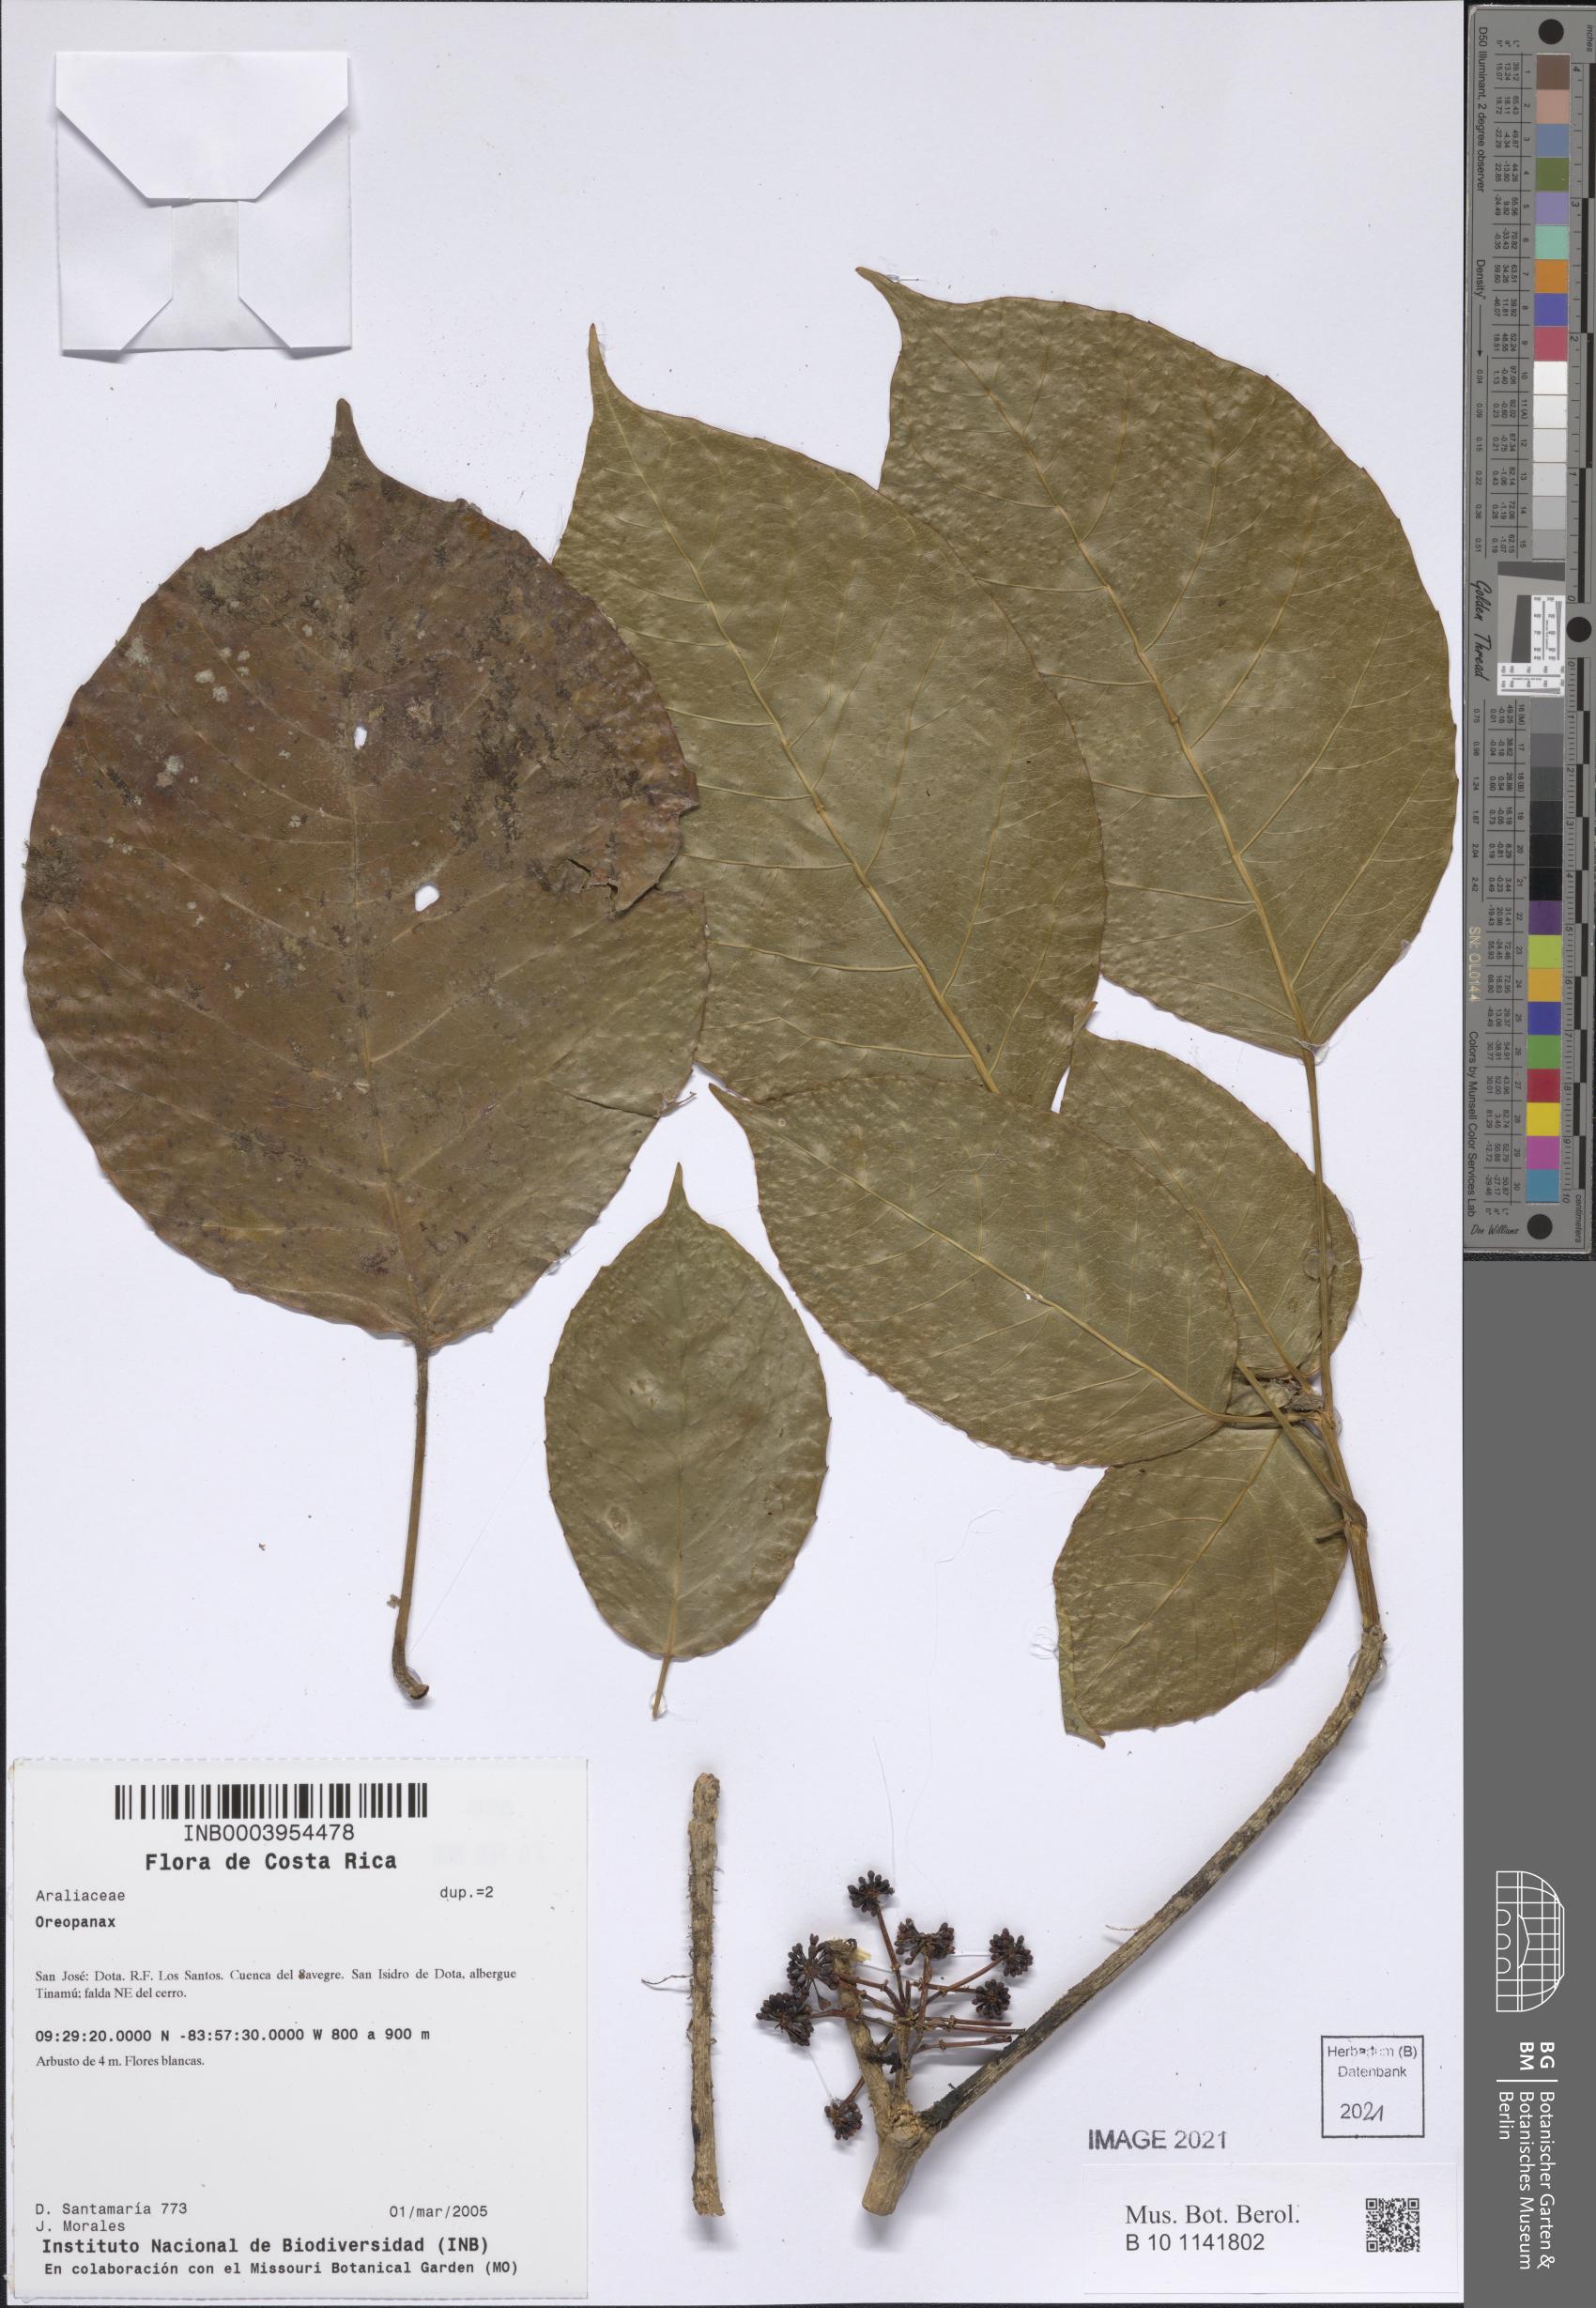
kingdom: Plantae
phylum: Tracheophyta
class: Magnoliopsida
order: Apiales
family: Araliaceae
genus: Oreopanax
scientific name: Oreopanax
